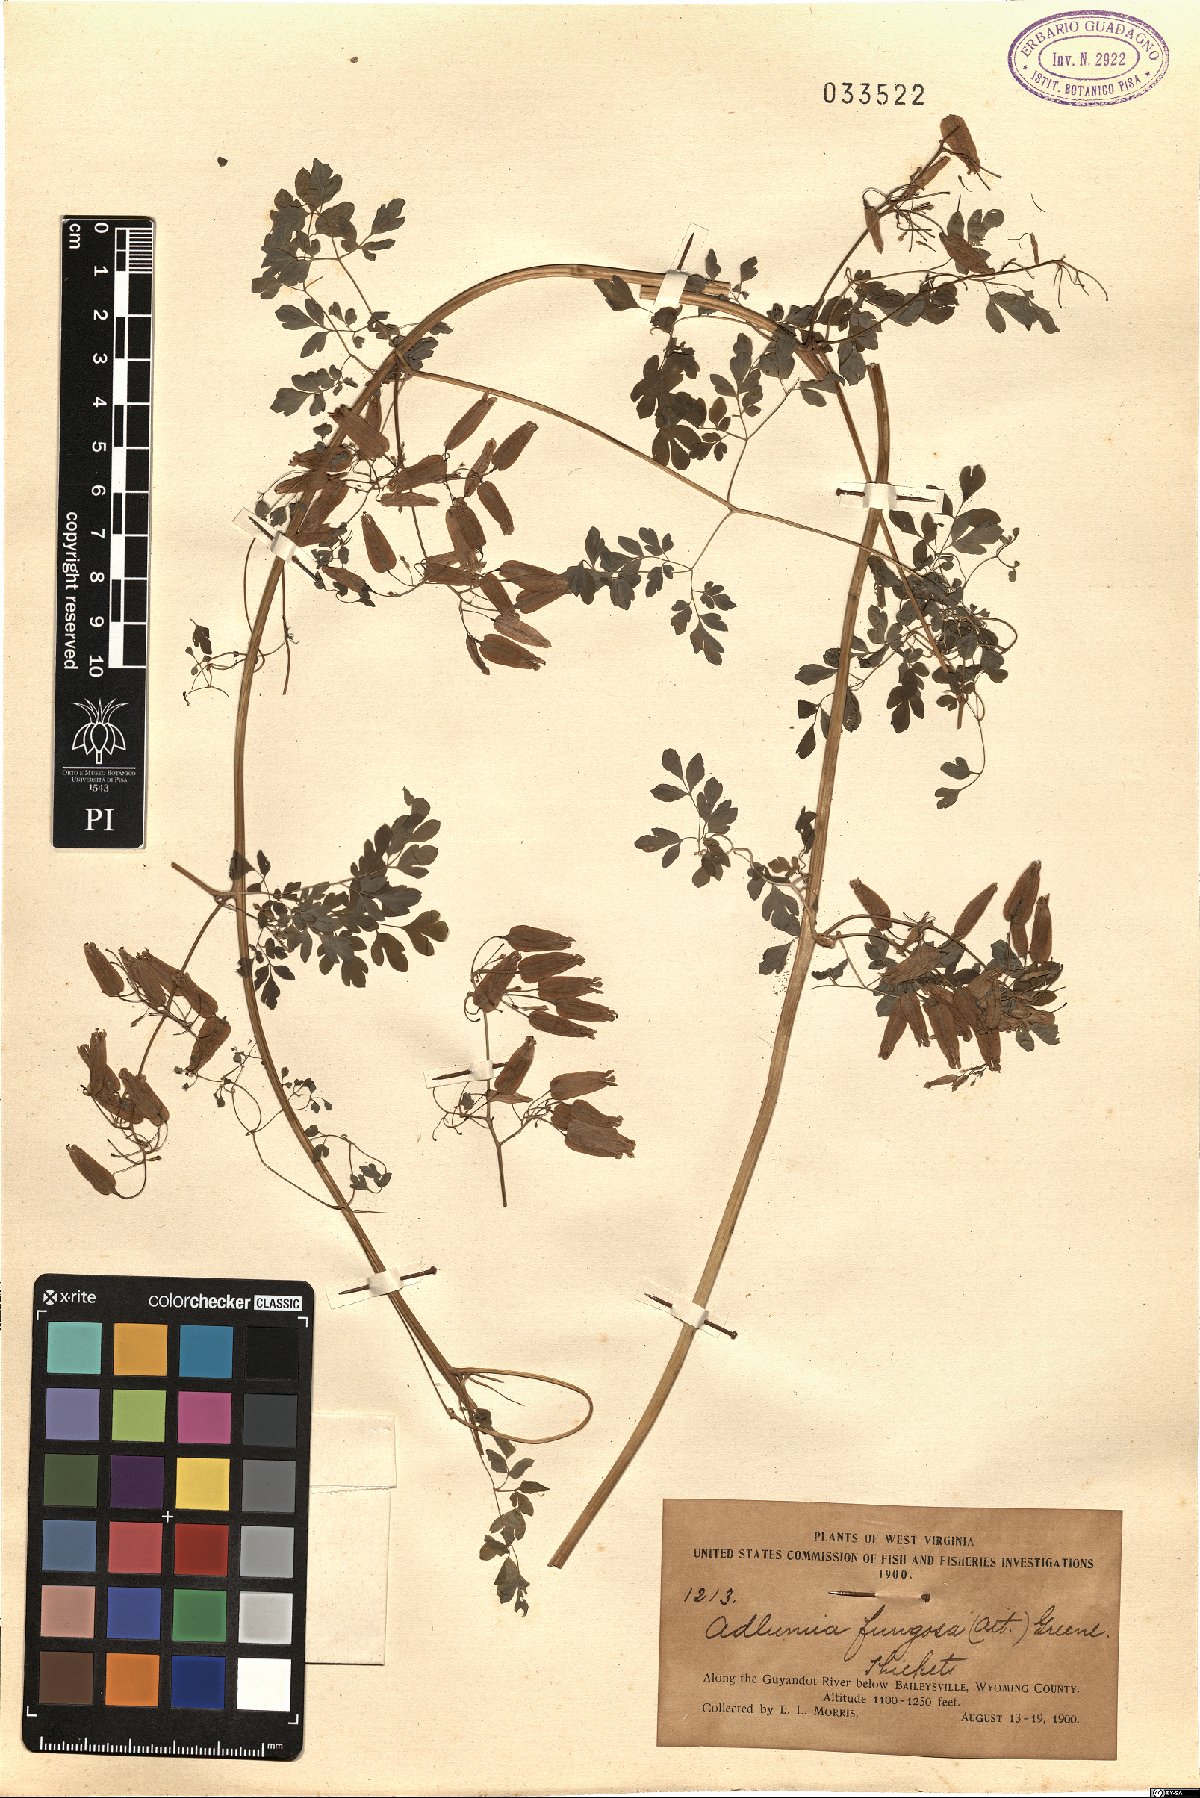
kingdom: Plantae
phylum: Tracheophyta
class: Magnoliopsida
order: Ranunculales
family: Papaveraceae
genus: Adlumia
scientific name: Adlumia fungosa
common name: Mountain-fringe
